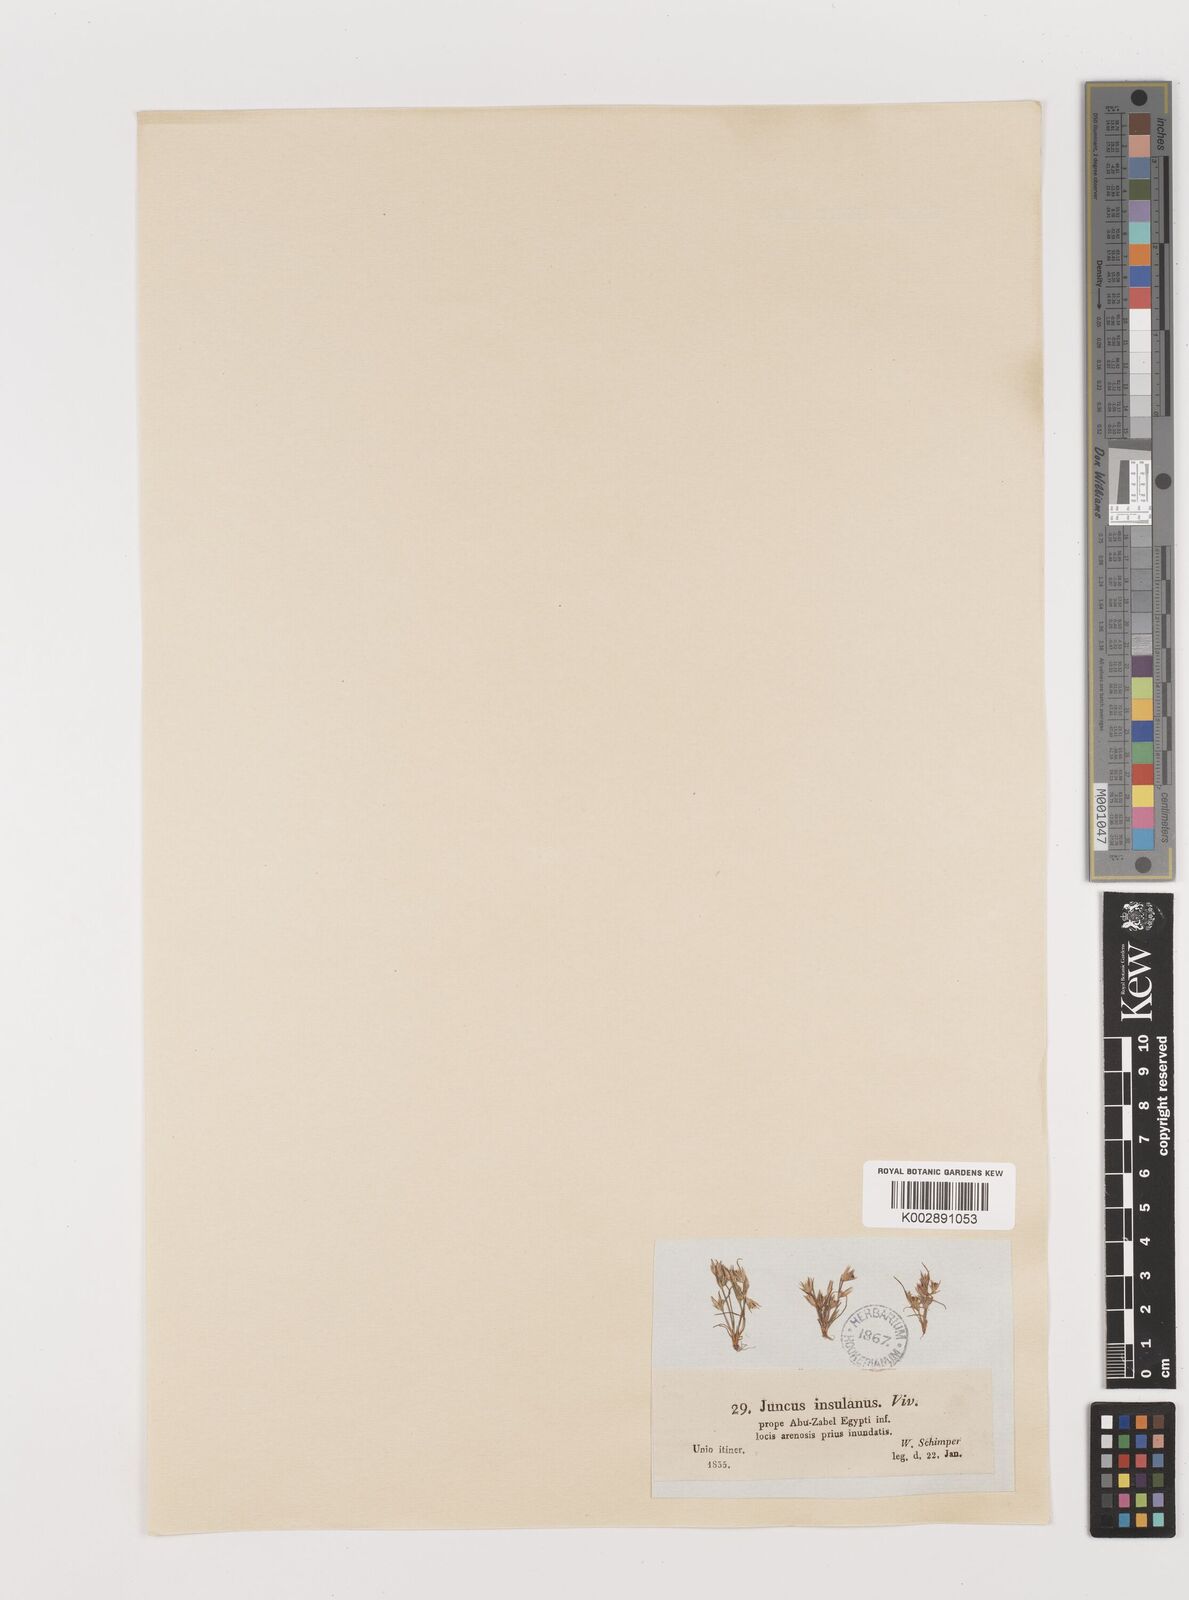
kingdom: Plantae
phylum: Tracheophyta
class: Liliopsida
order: Poales
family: Juncaceae
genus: Juncus
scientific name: Juncus bufonius
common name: Toad rush
